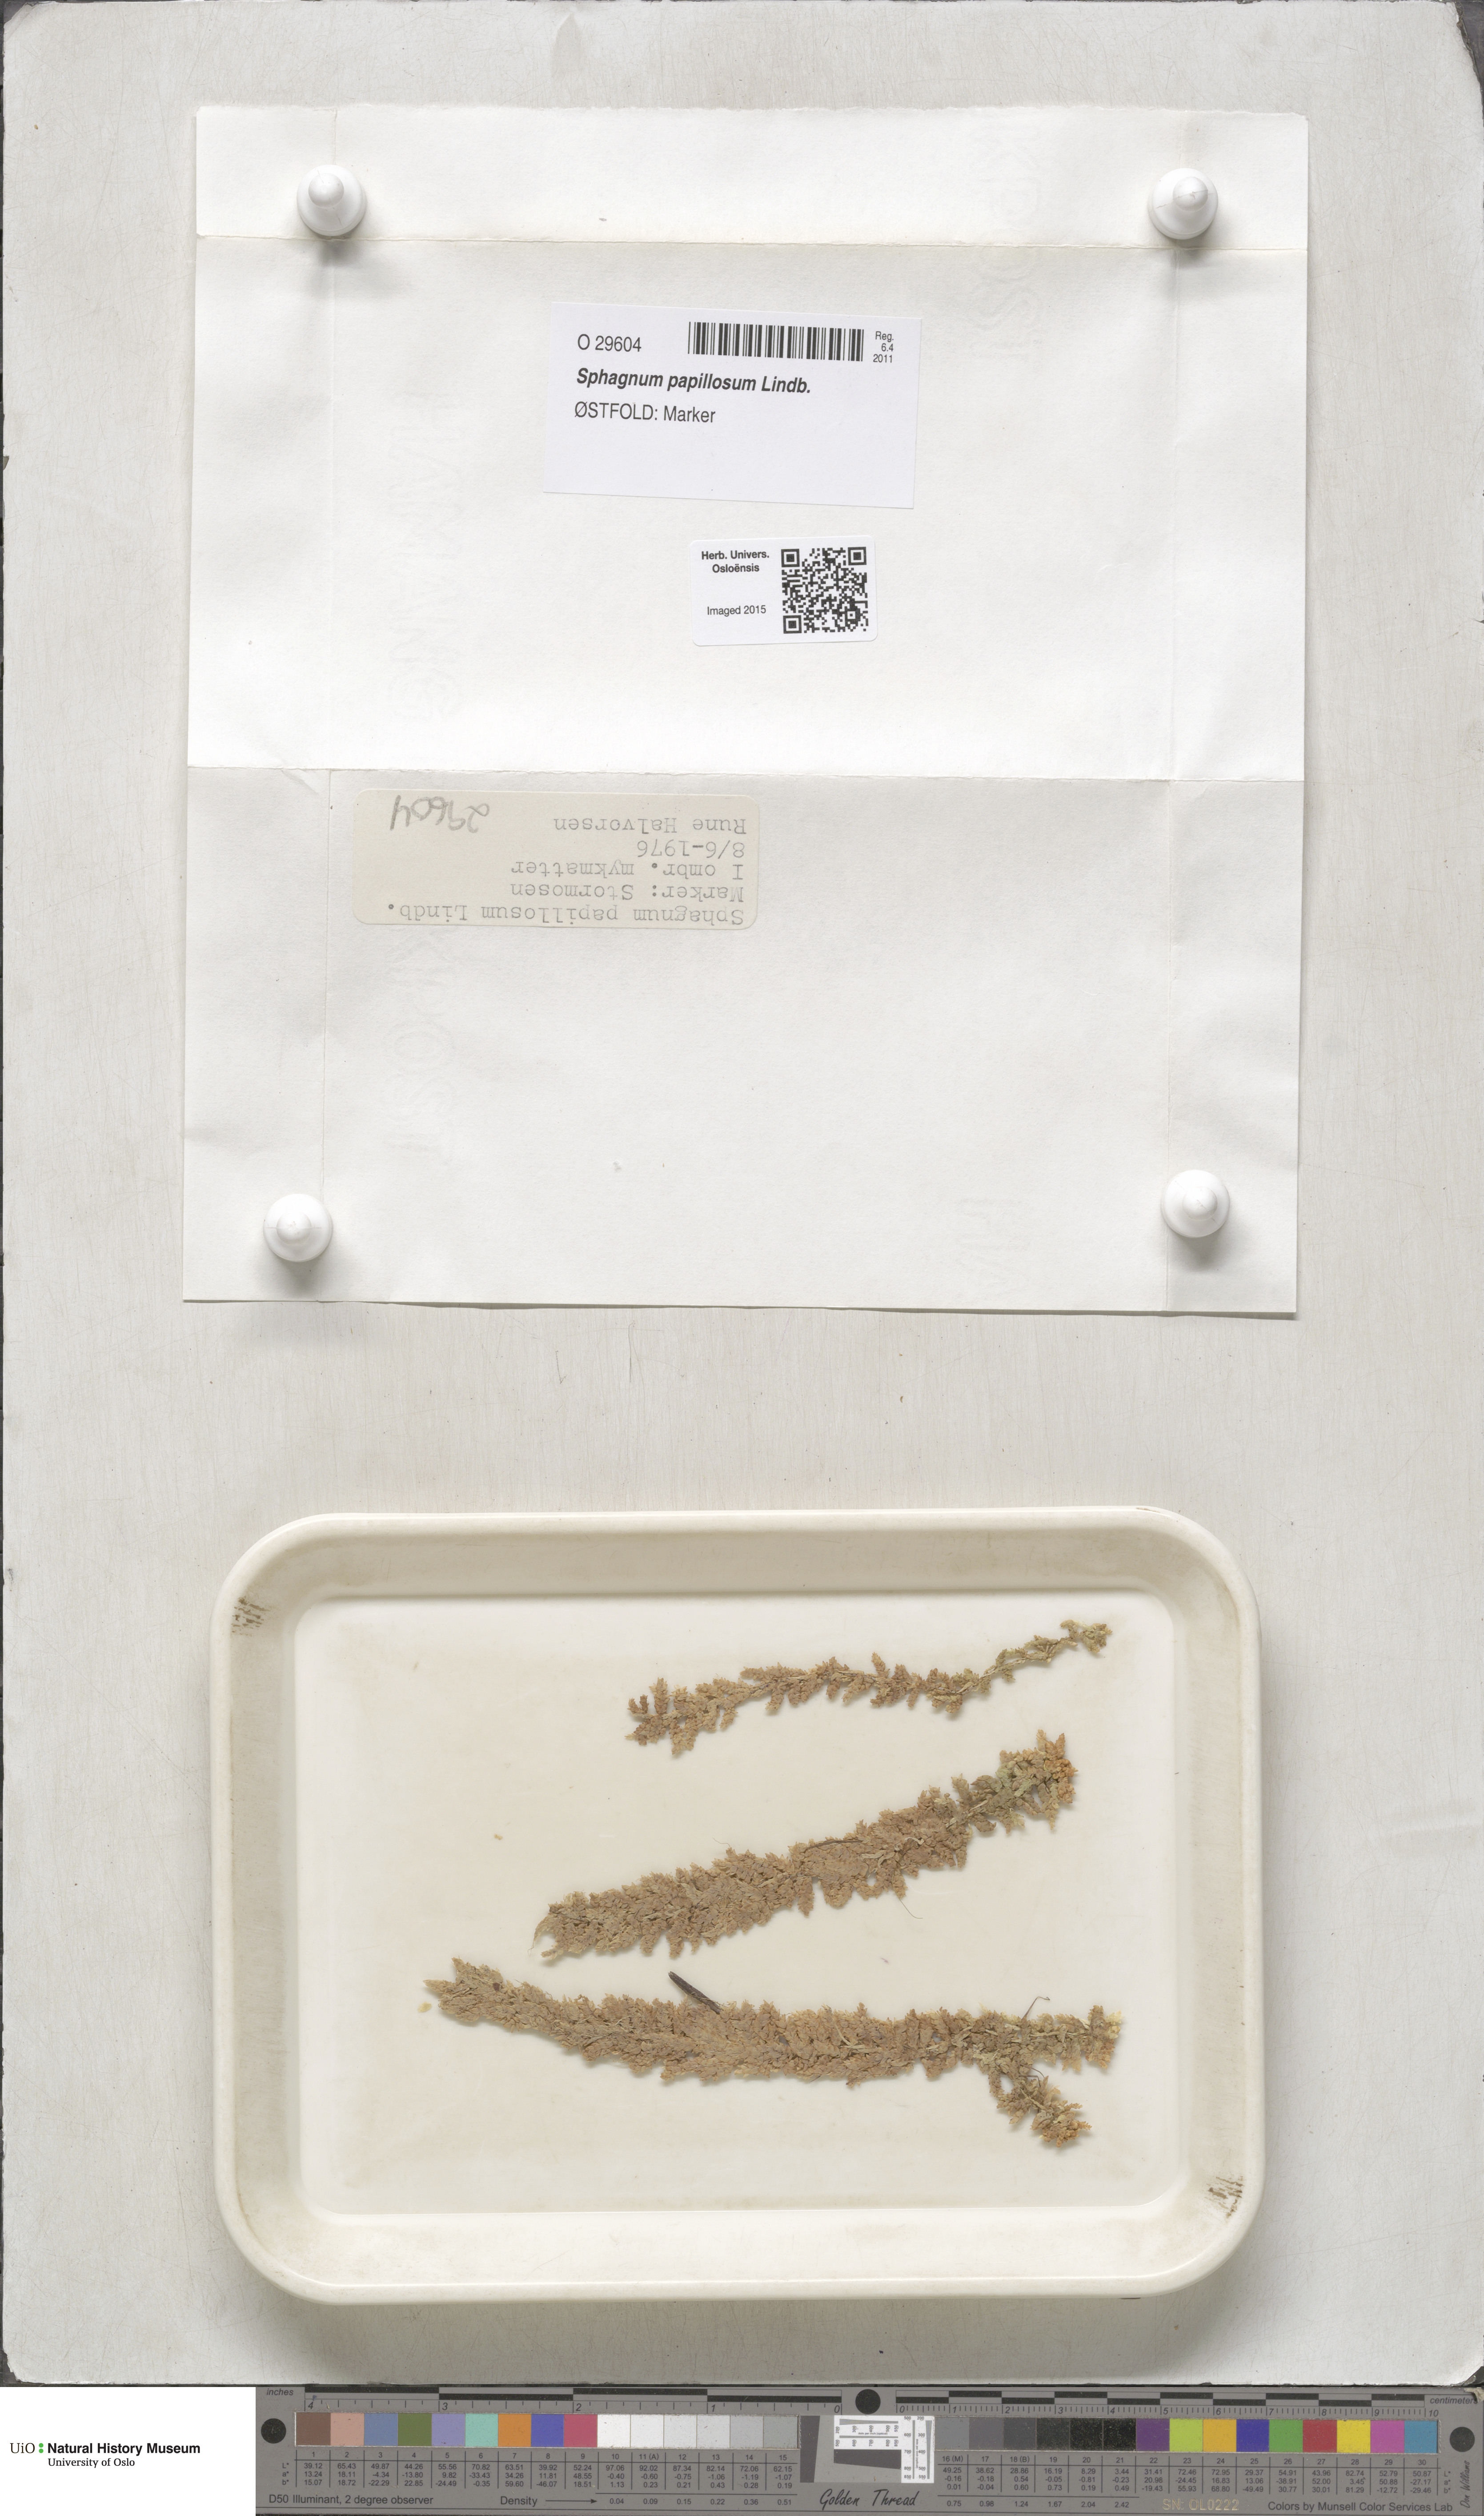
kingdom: Plantae
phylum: Bryophyta
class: Sphagnopsida
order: Sphagnales
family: Sphagnaceae
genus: Sphagnum
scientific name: Sphagnum papillosum
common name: Papillose peat moss
